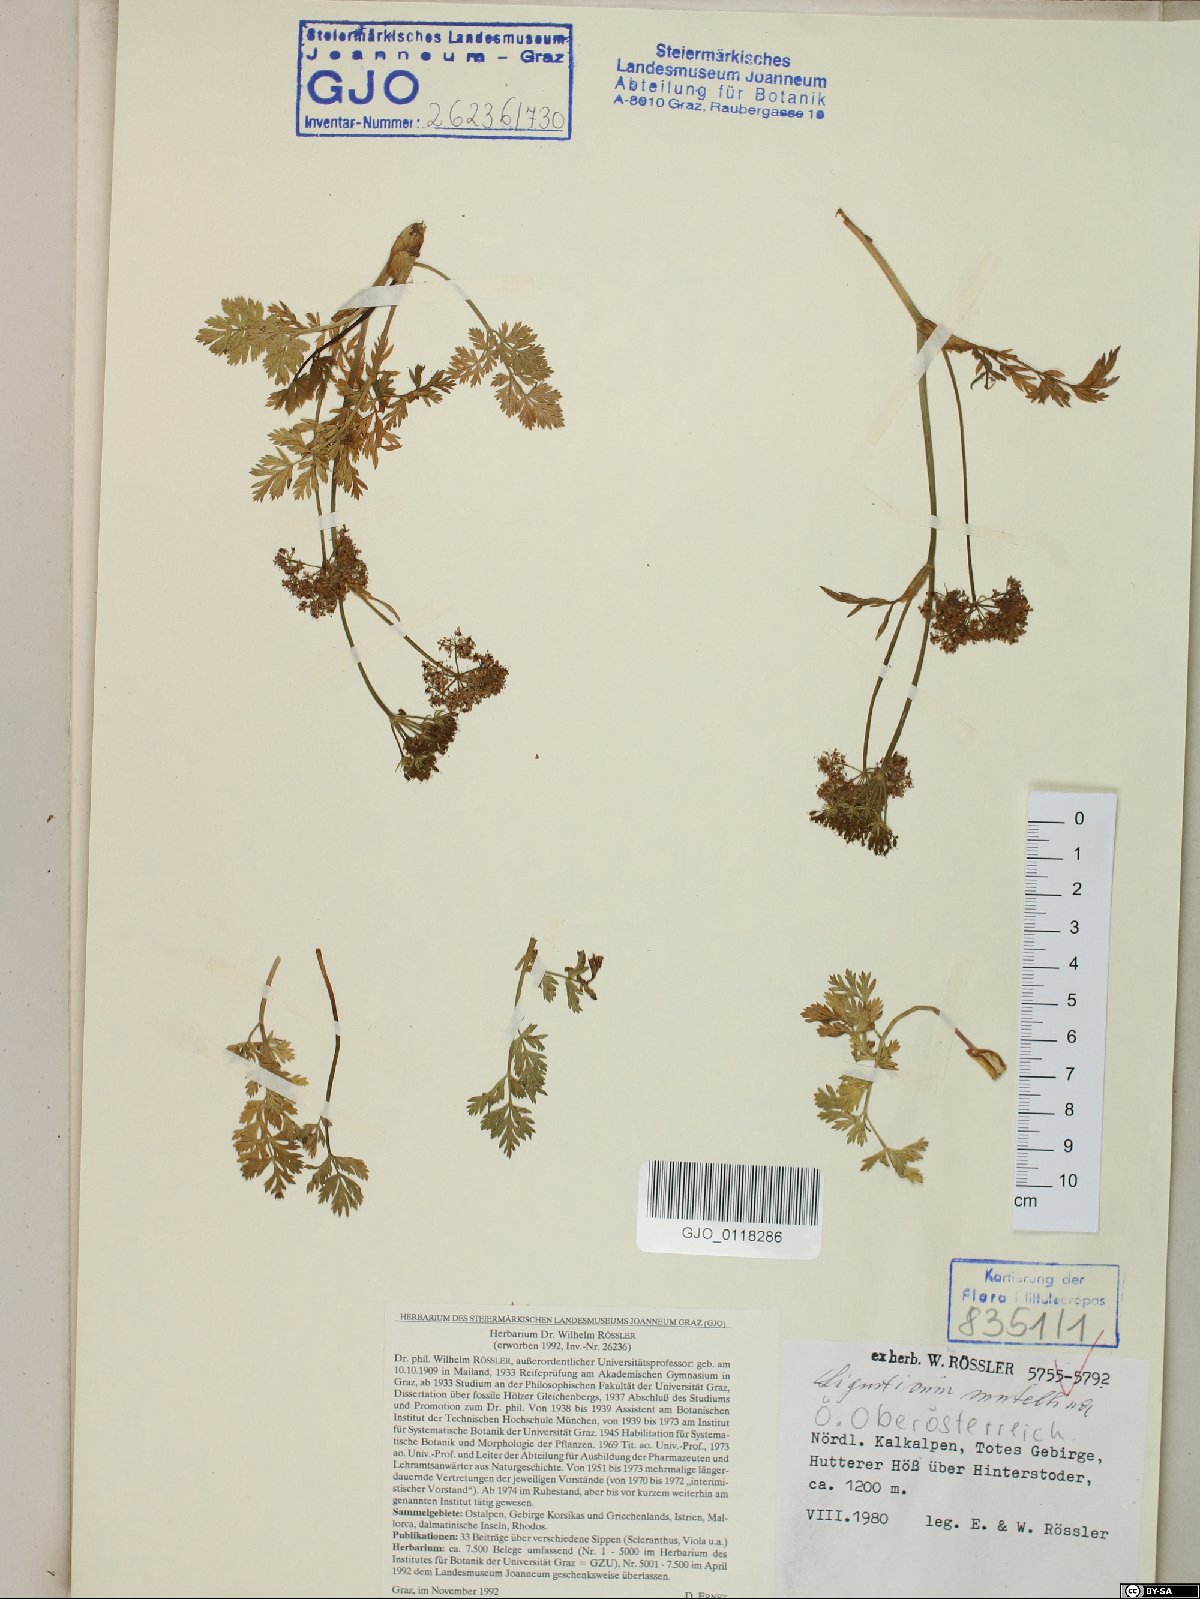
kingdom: Plantae
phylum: Tracheophyta
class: Magnoliopsida
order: Apiales
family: Apiaceae
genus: Mutellina
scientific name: Mutellina adonidifolia
